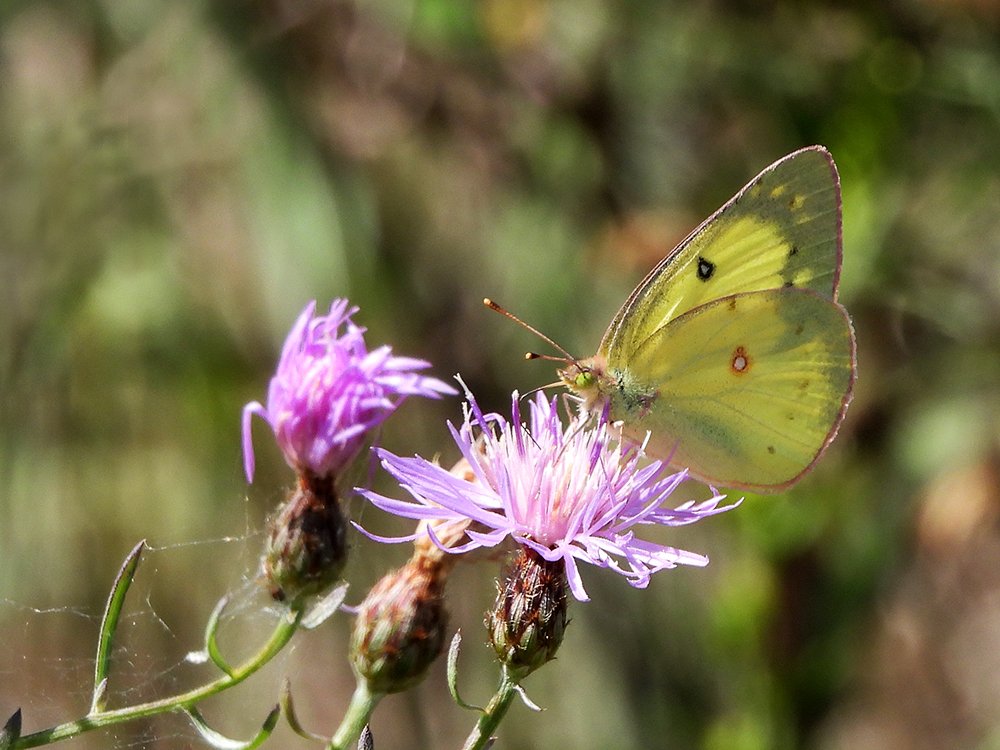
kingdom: Animalia
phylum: Arthropoda
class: Insecta
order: Lepidoptera
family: Pieridae
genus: Colias
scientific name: Colias philodice
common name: Clouded Sulphur
